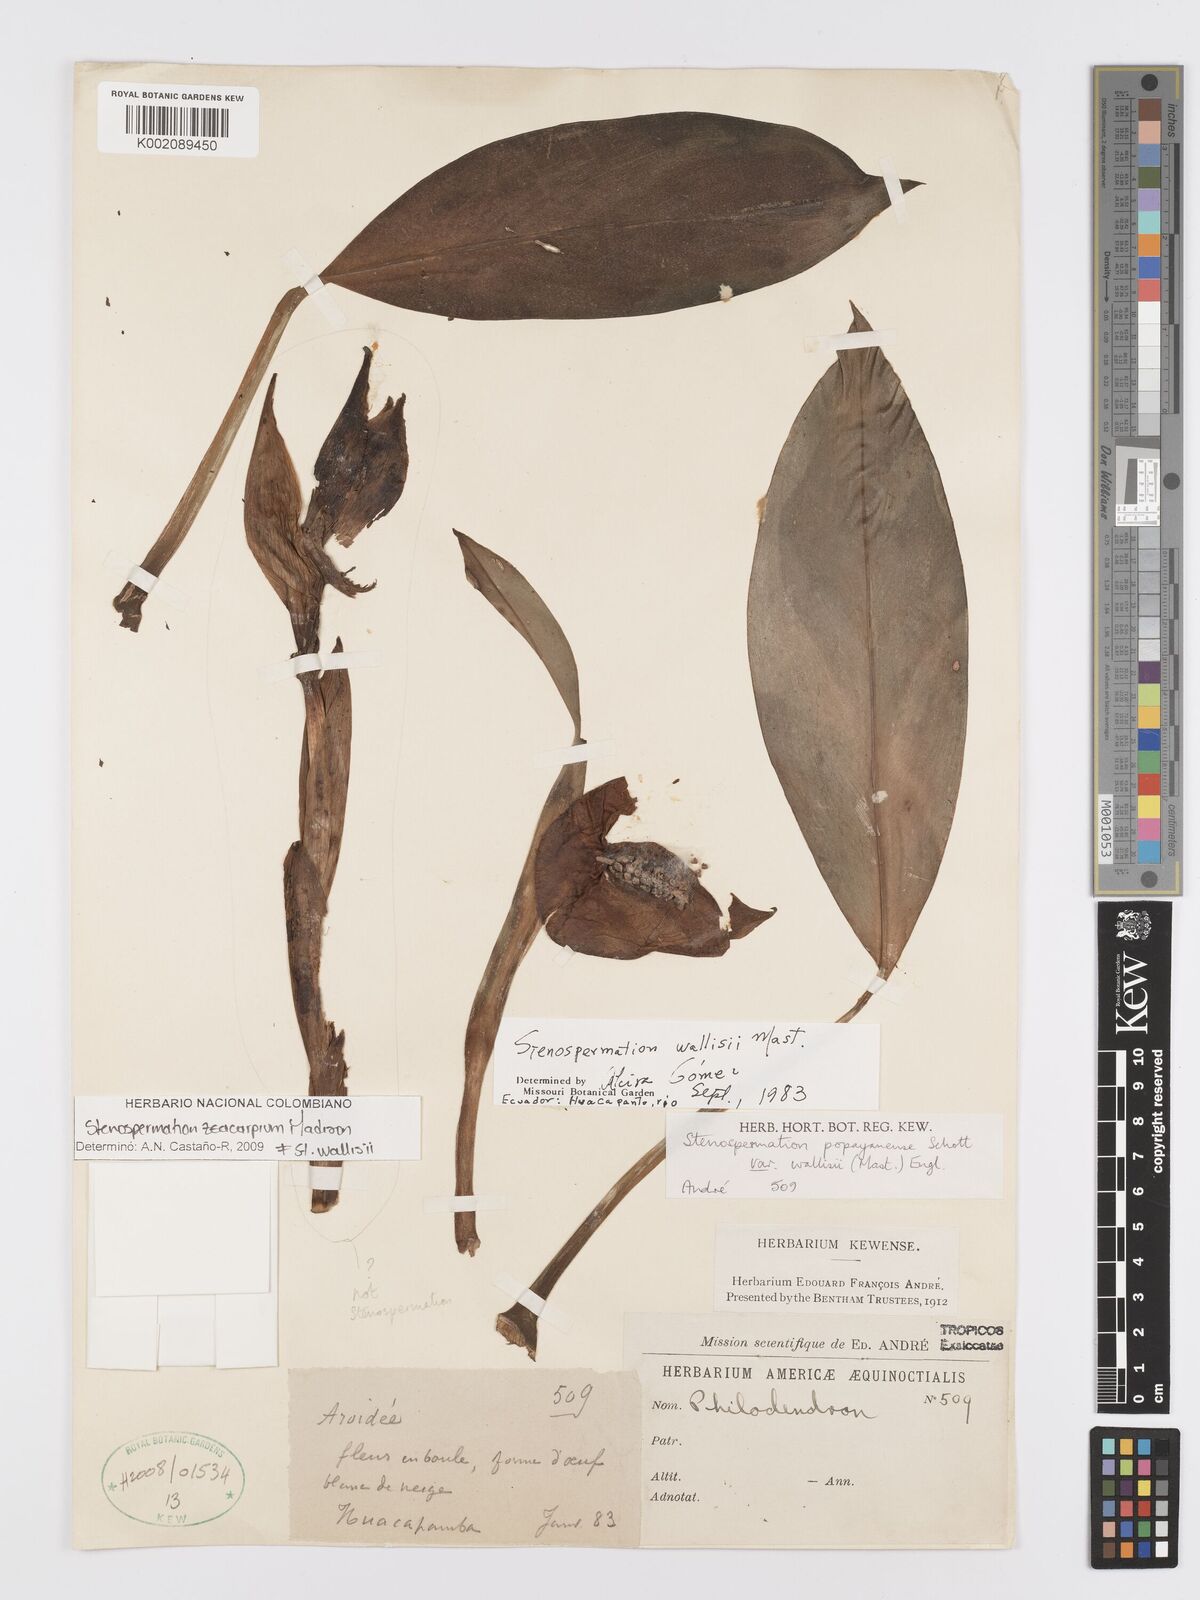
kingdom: Plantae
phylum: Tracheophyta
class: Liliopsida
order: Alismatales
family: Araceae
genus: Stenospermation
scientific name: Stenospermation wallisii
